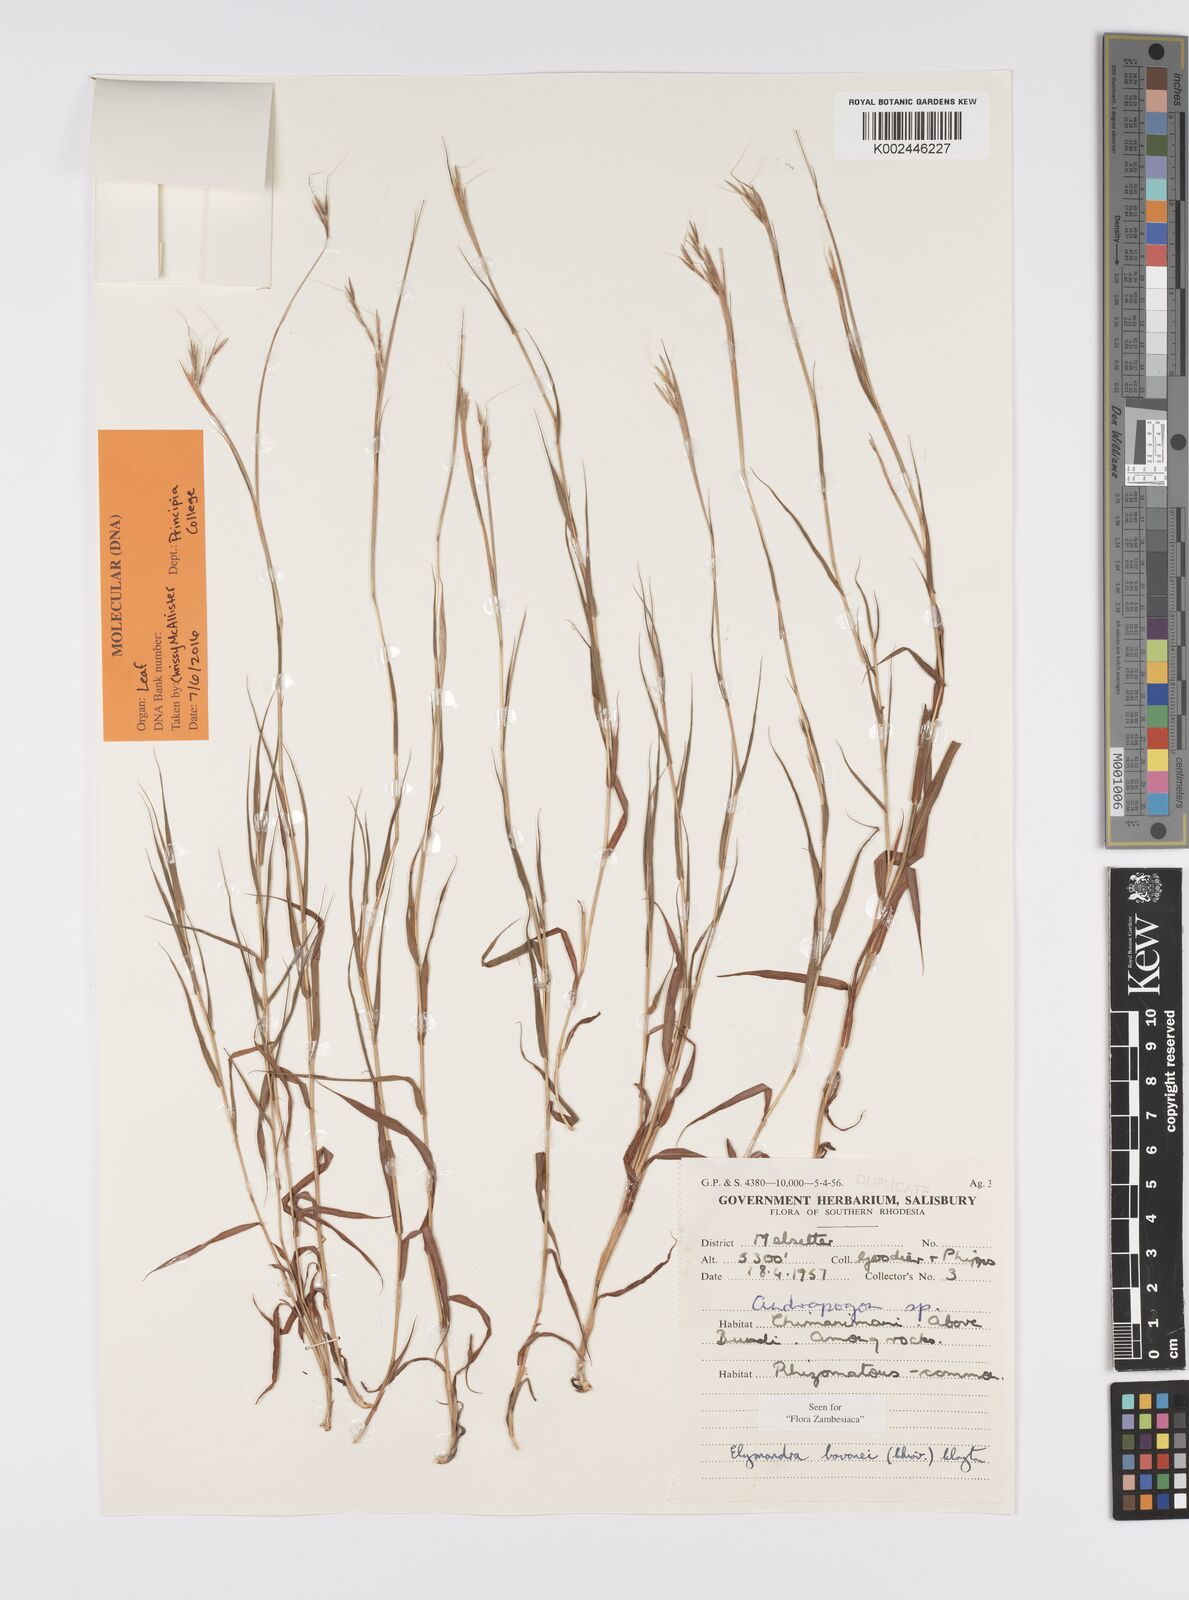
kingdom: Plantae
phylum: Tracheophyta
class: Liliopsida
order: Poales
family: Poaceae
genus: Elymandra
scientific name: Elymandra lithophila
